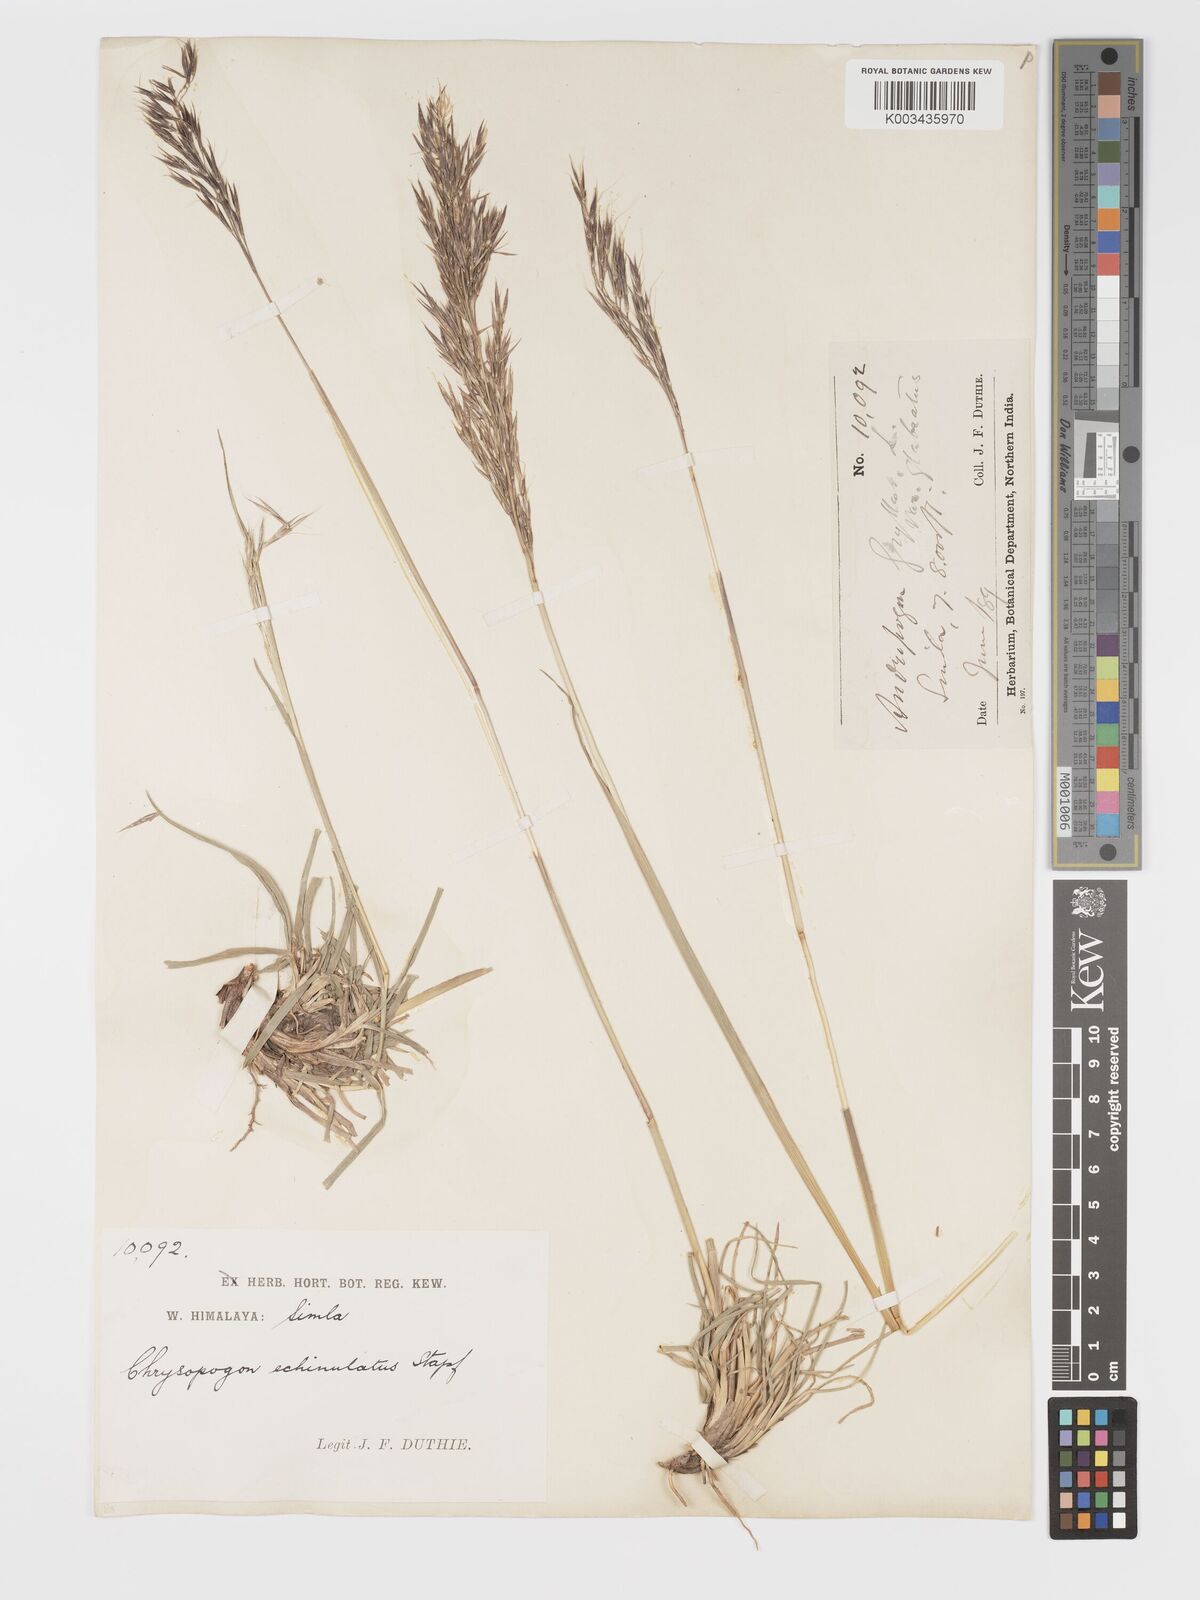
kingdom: Plantae
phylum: Tracheophyta
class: Liliopsida
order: Poales
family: Poaceae
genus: Chrysopogon
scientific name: Chrysopogon gryllus
